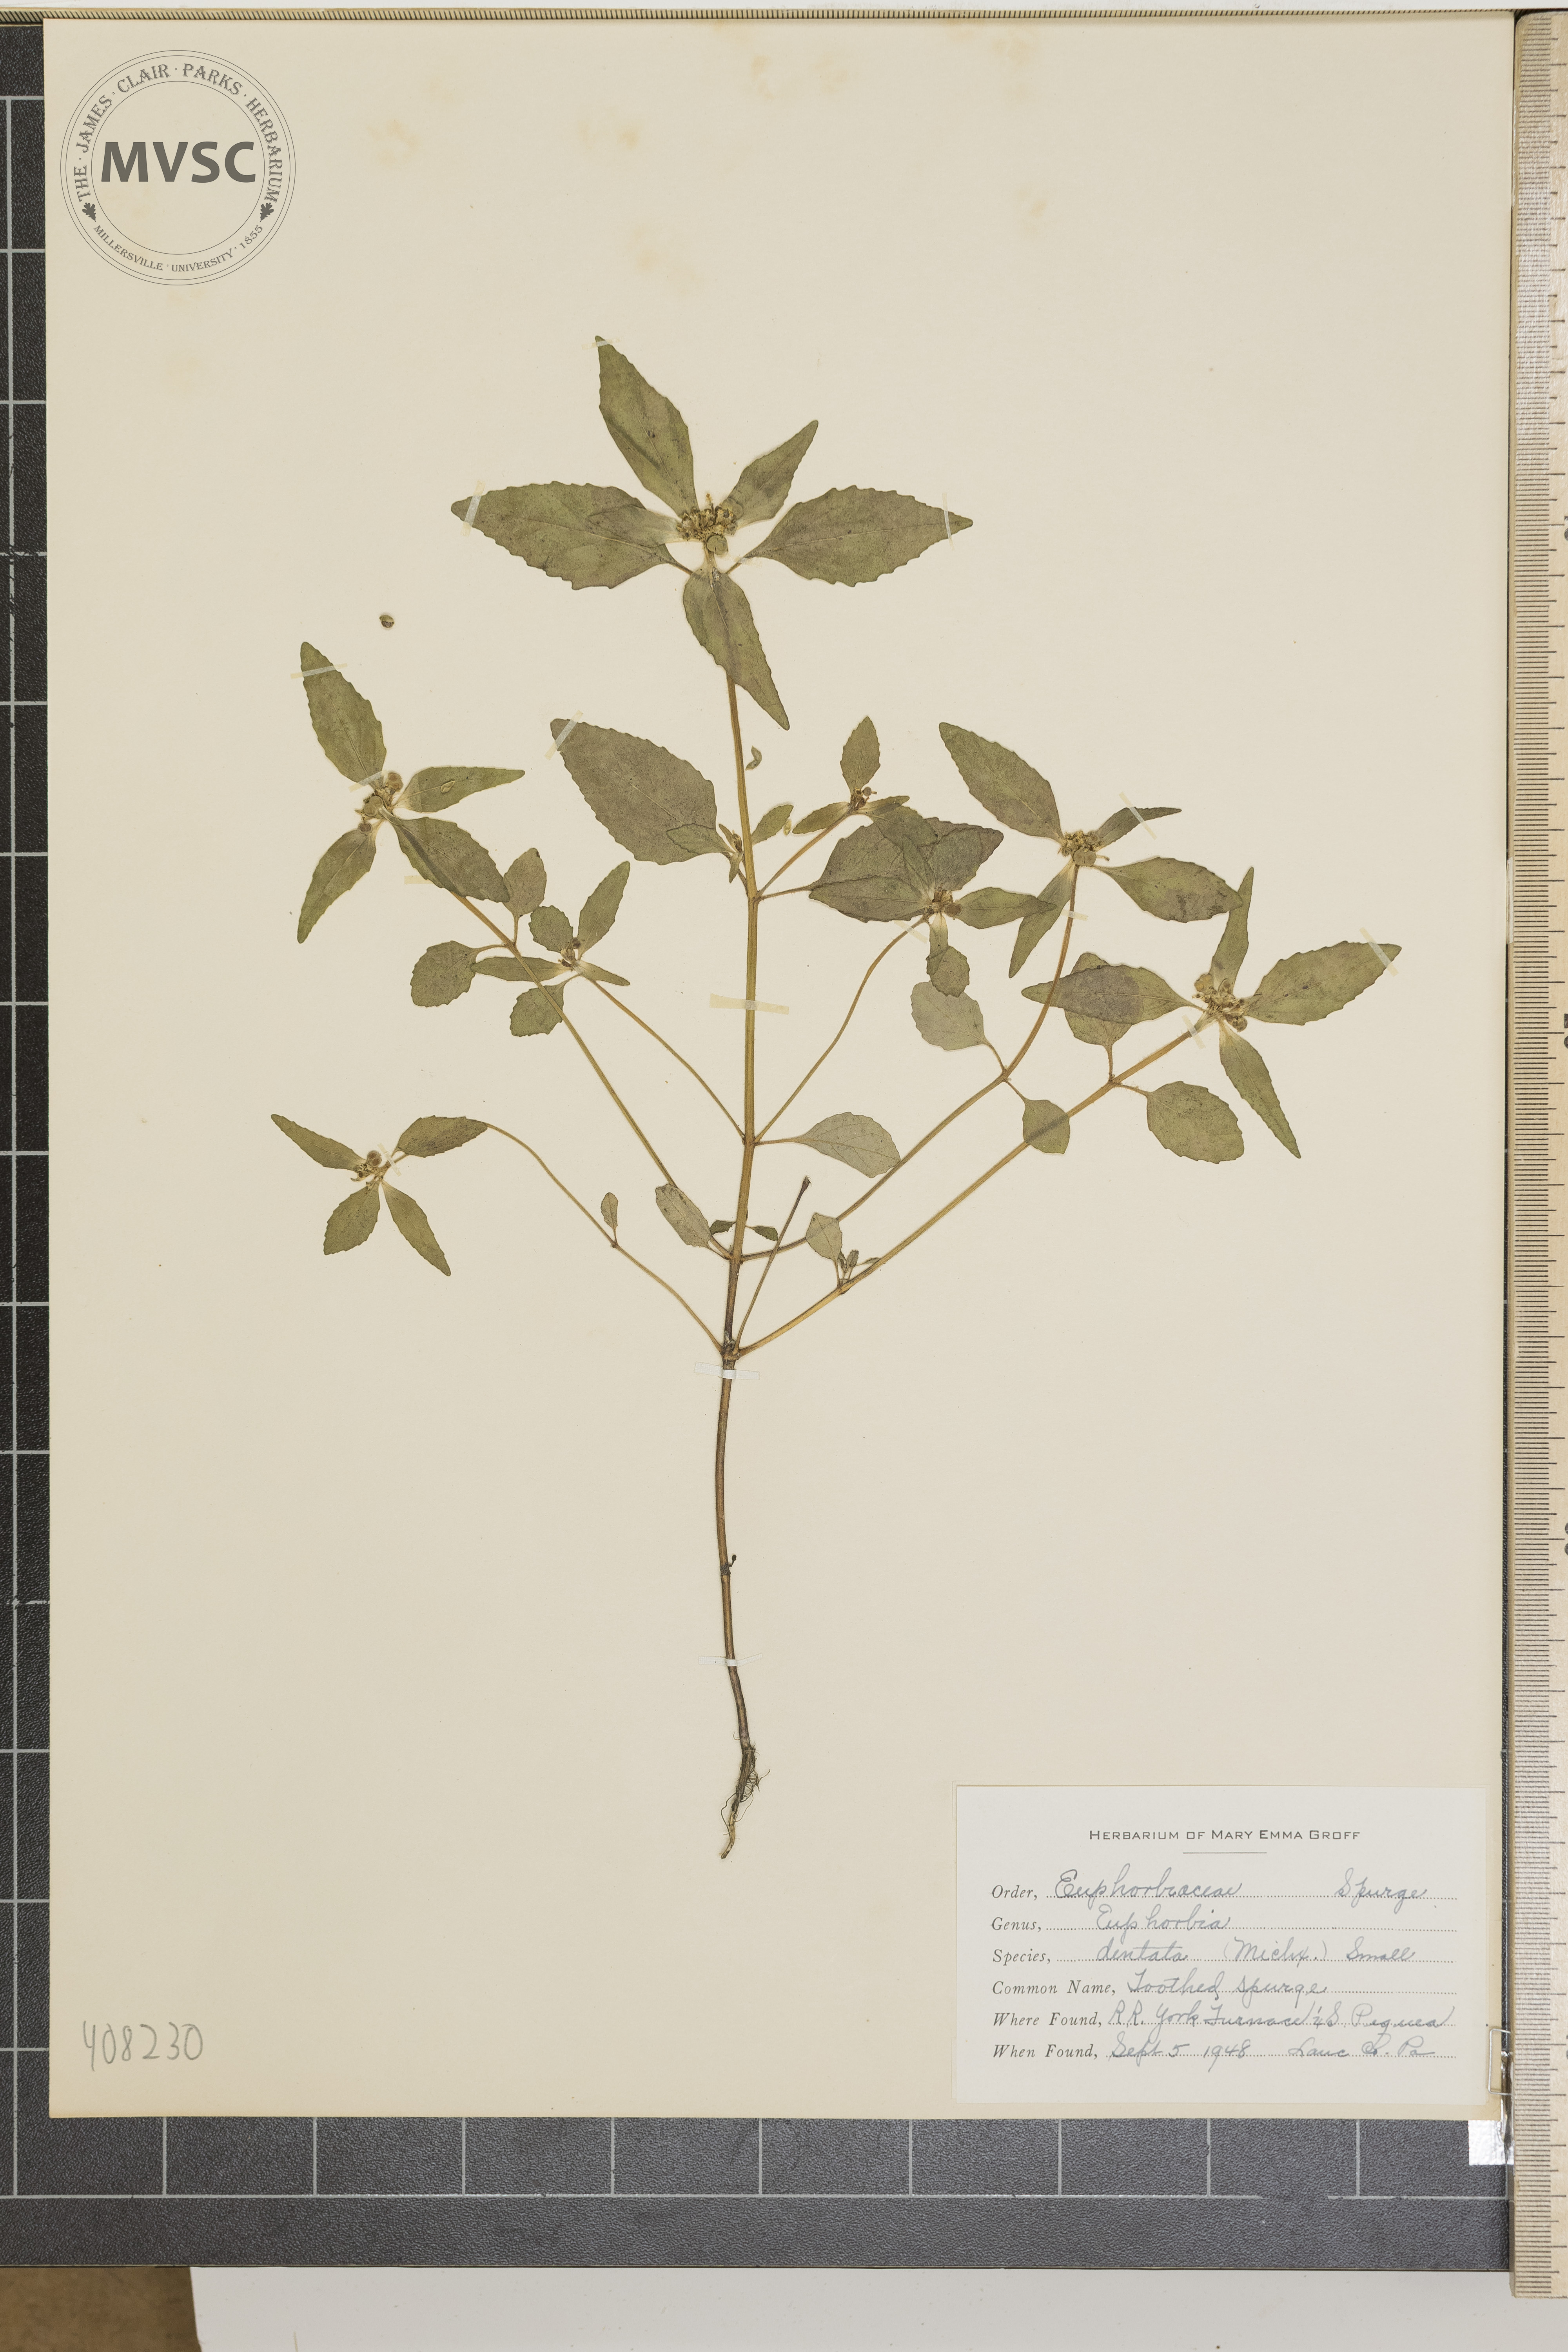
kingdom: Plantae
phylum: Tracheophyta
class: Magnoliopsida
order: Malpighiales
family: Euphorbiaceae
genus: Euphorbia
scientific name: Euphorbia dentata
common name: Toothed Spurge
